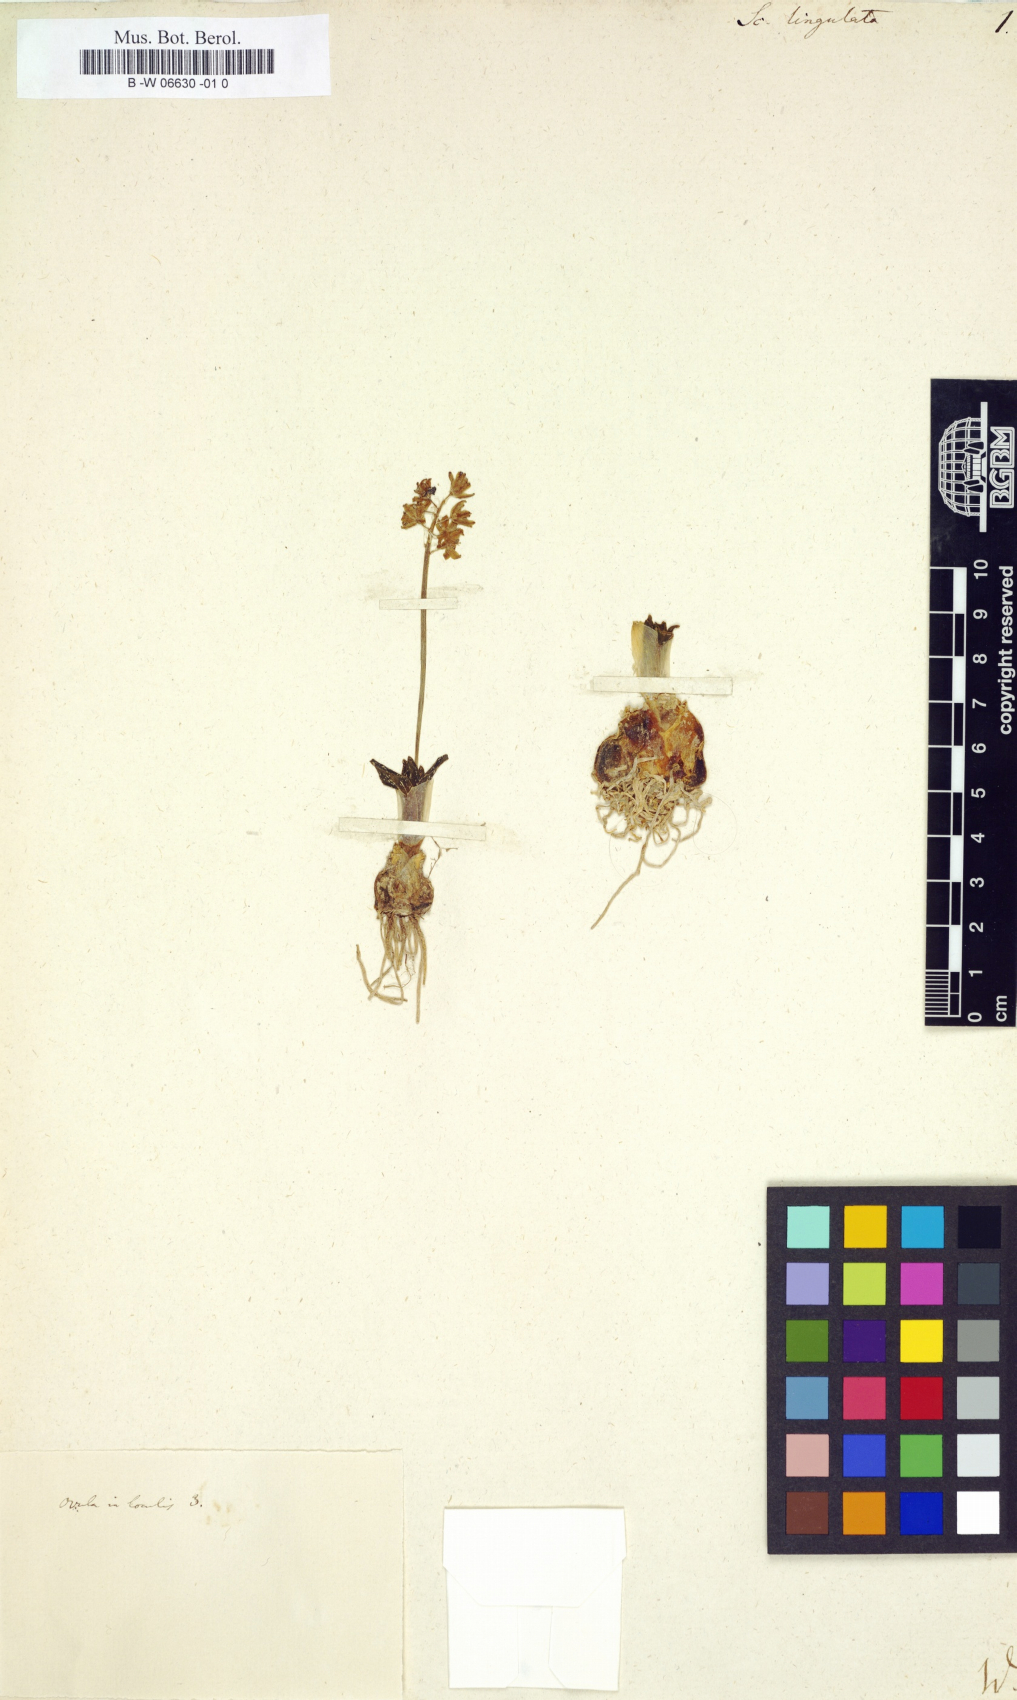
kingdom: Plantae
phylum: Tracheophyta
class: Liliopsida
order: Asparagales
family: Asparagaceae
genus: Hyacinthoides
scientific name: Hyacinthoides lingulata
